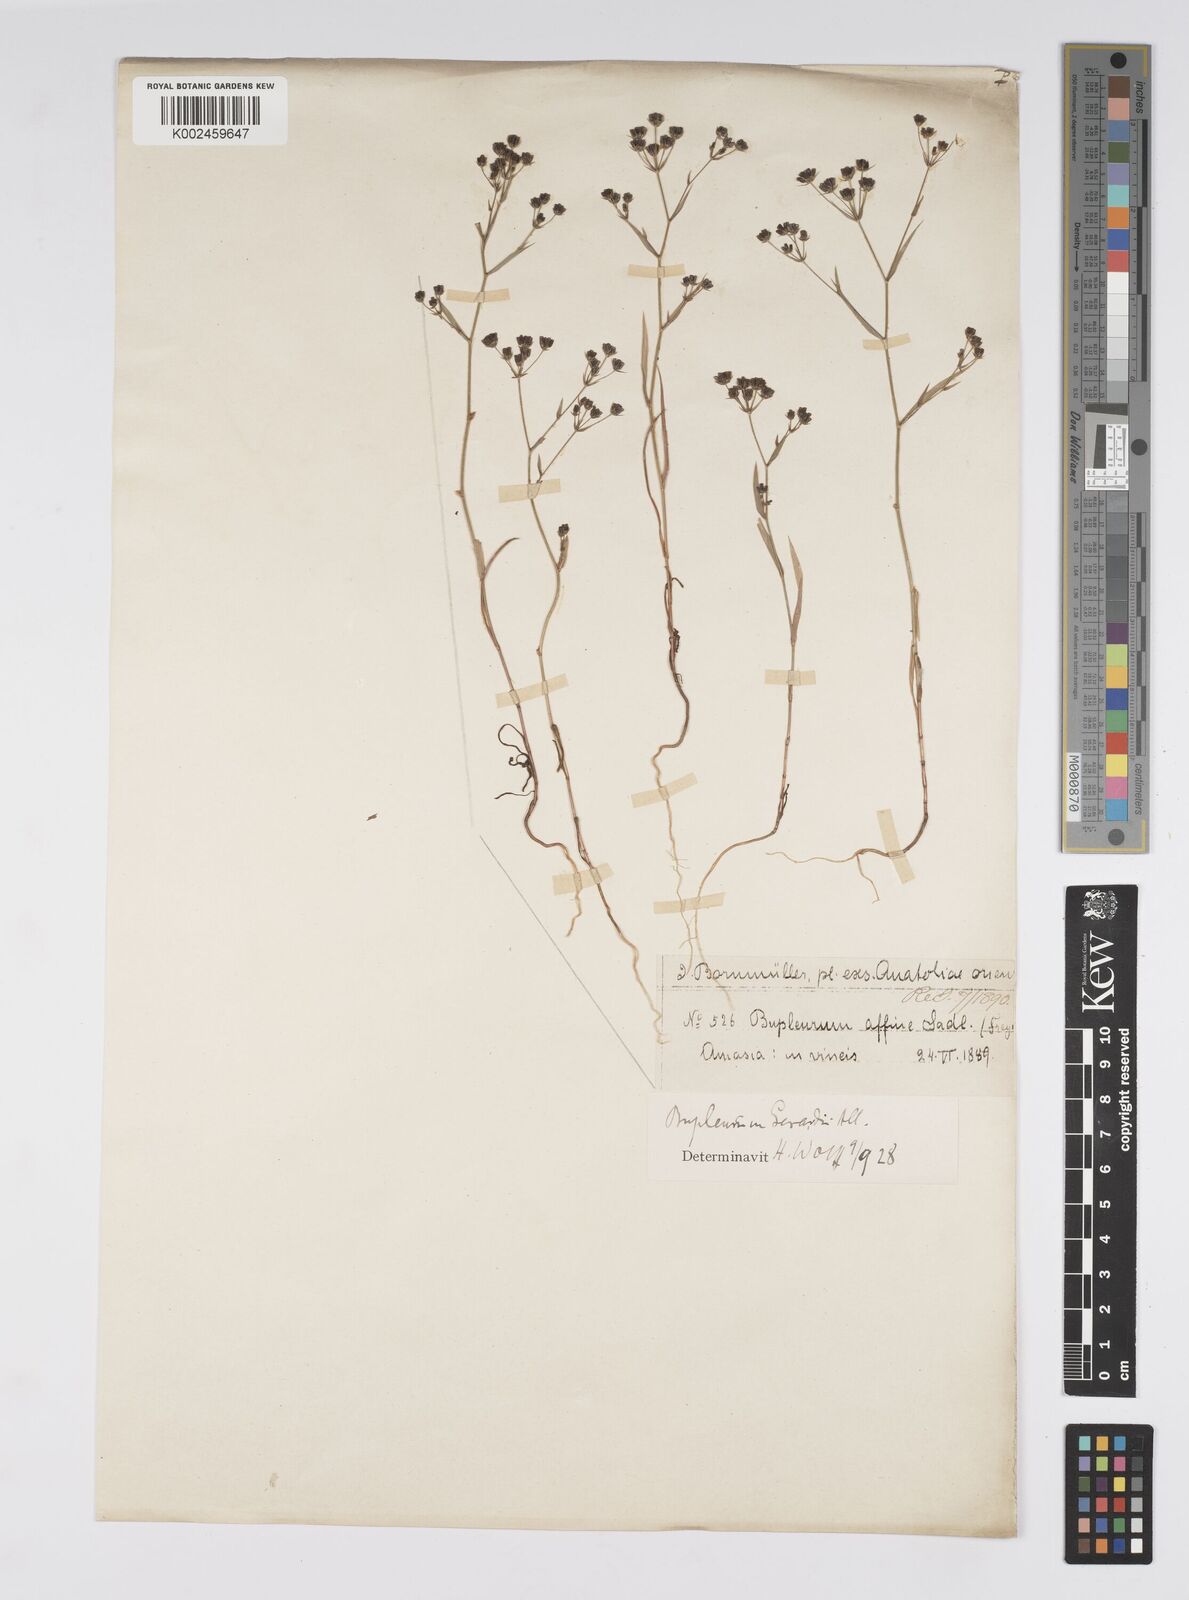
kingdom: Plantae
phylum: Tracheophyta
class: Magnoliopsida
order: Apiales
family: Apiaceae
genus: Bupleurum
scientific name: Bupleurum gerardi
